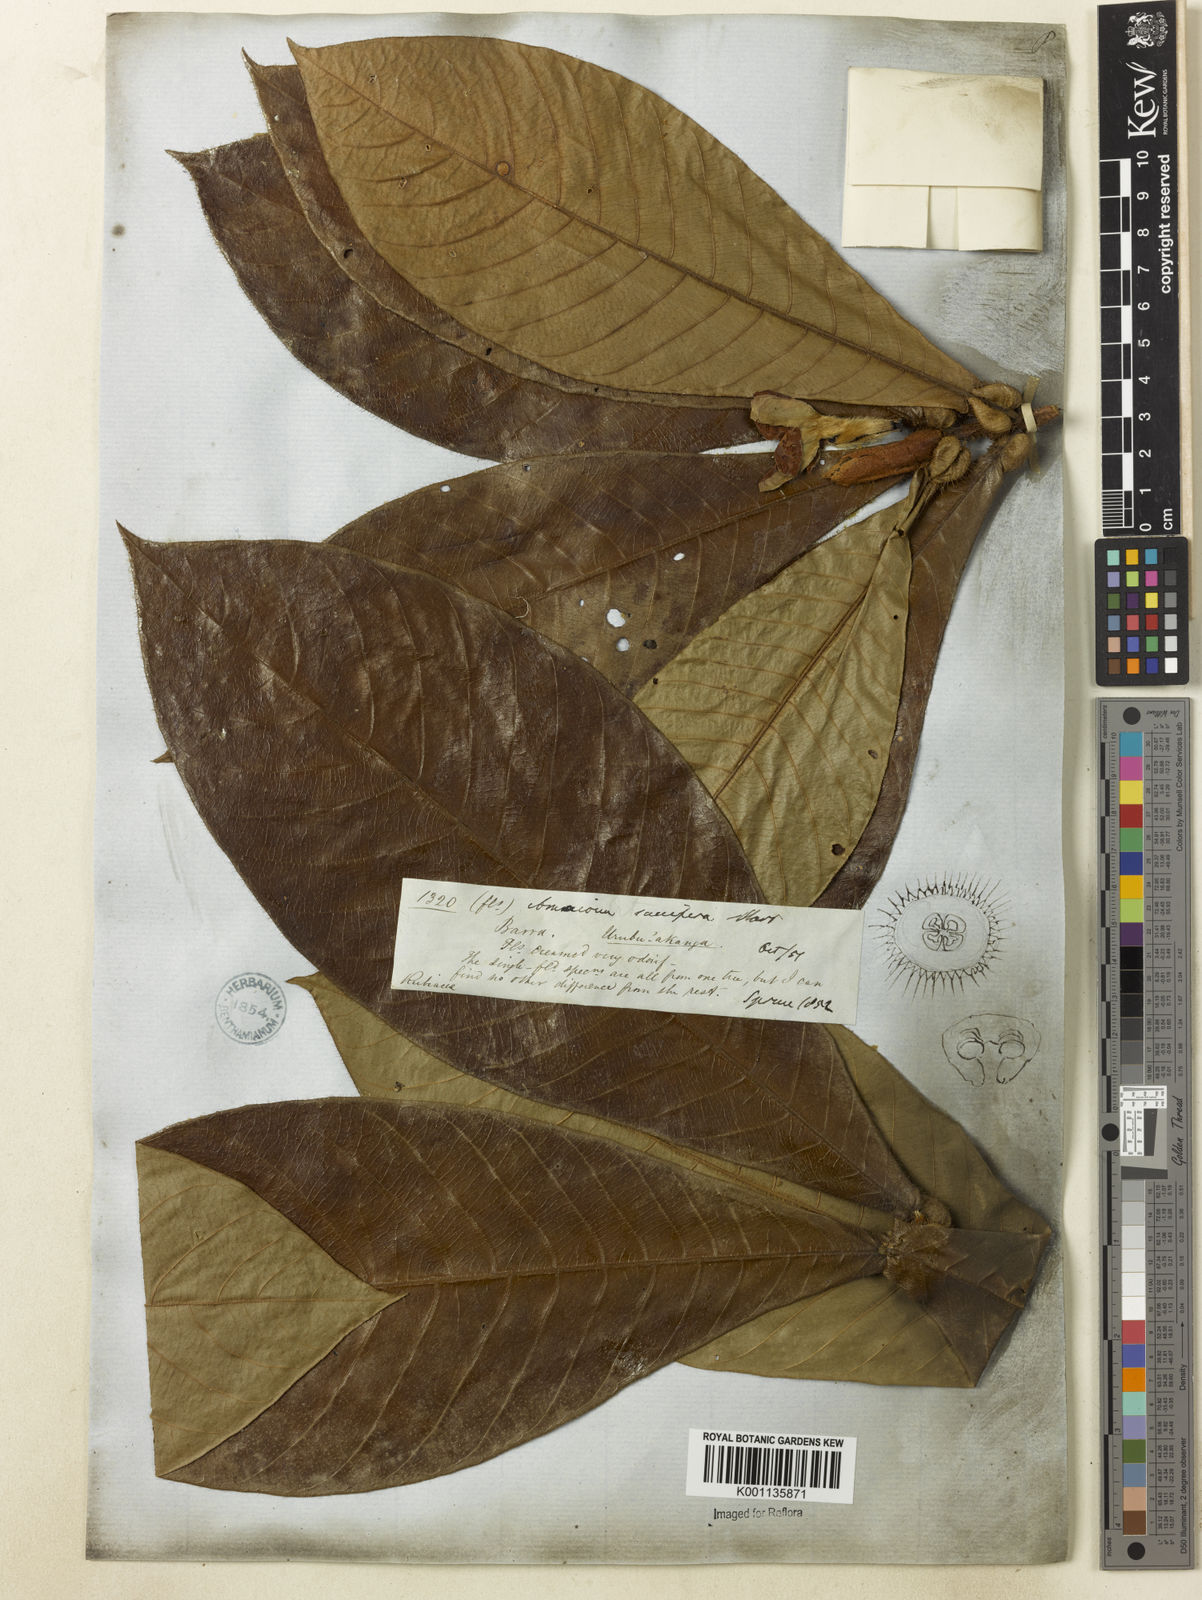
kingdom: Plantae
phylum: Tracheophyta
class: Magnoliopsida
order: Gentianales
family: Rubiaceae
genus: Duroia
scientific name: Duroia saccifera
